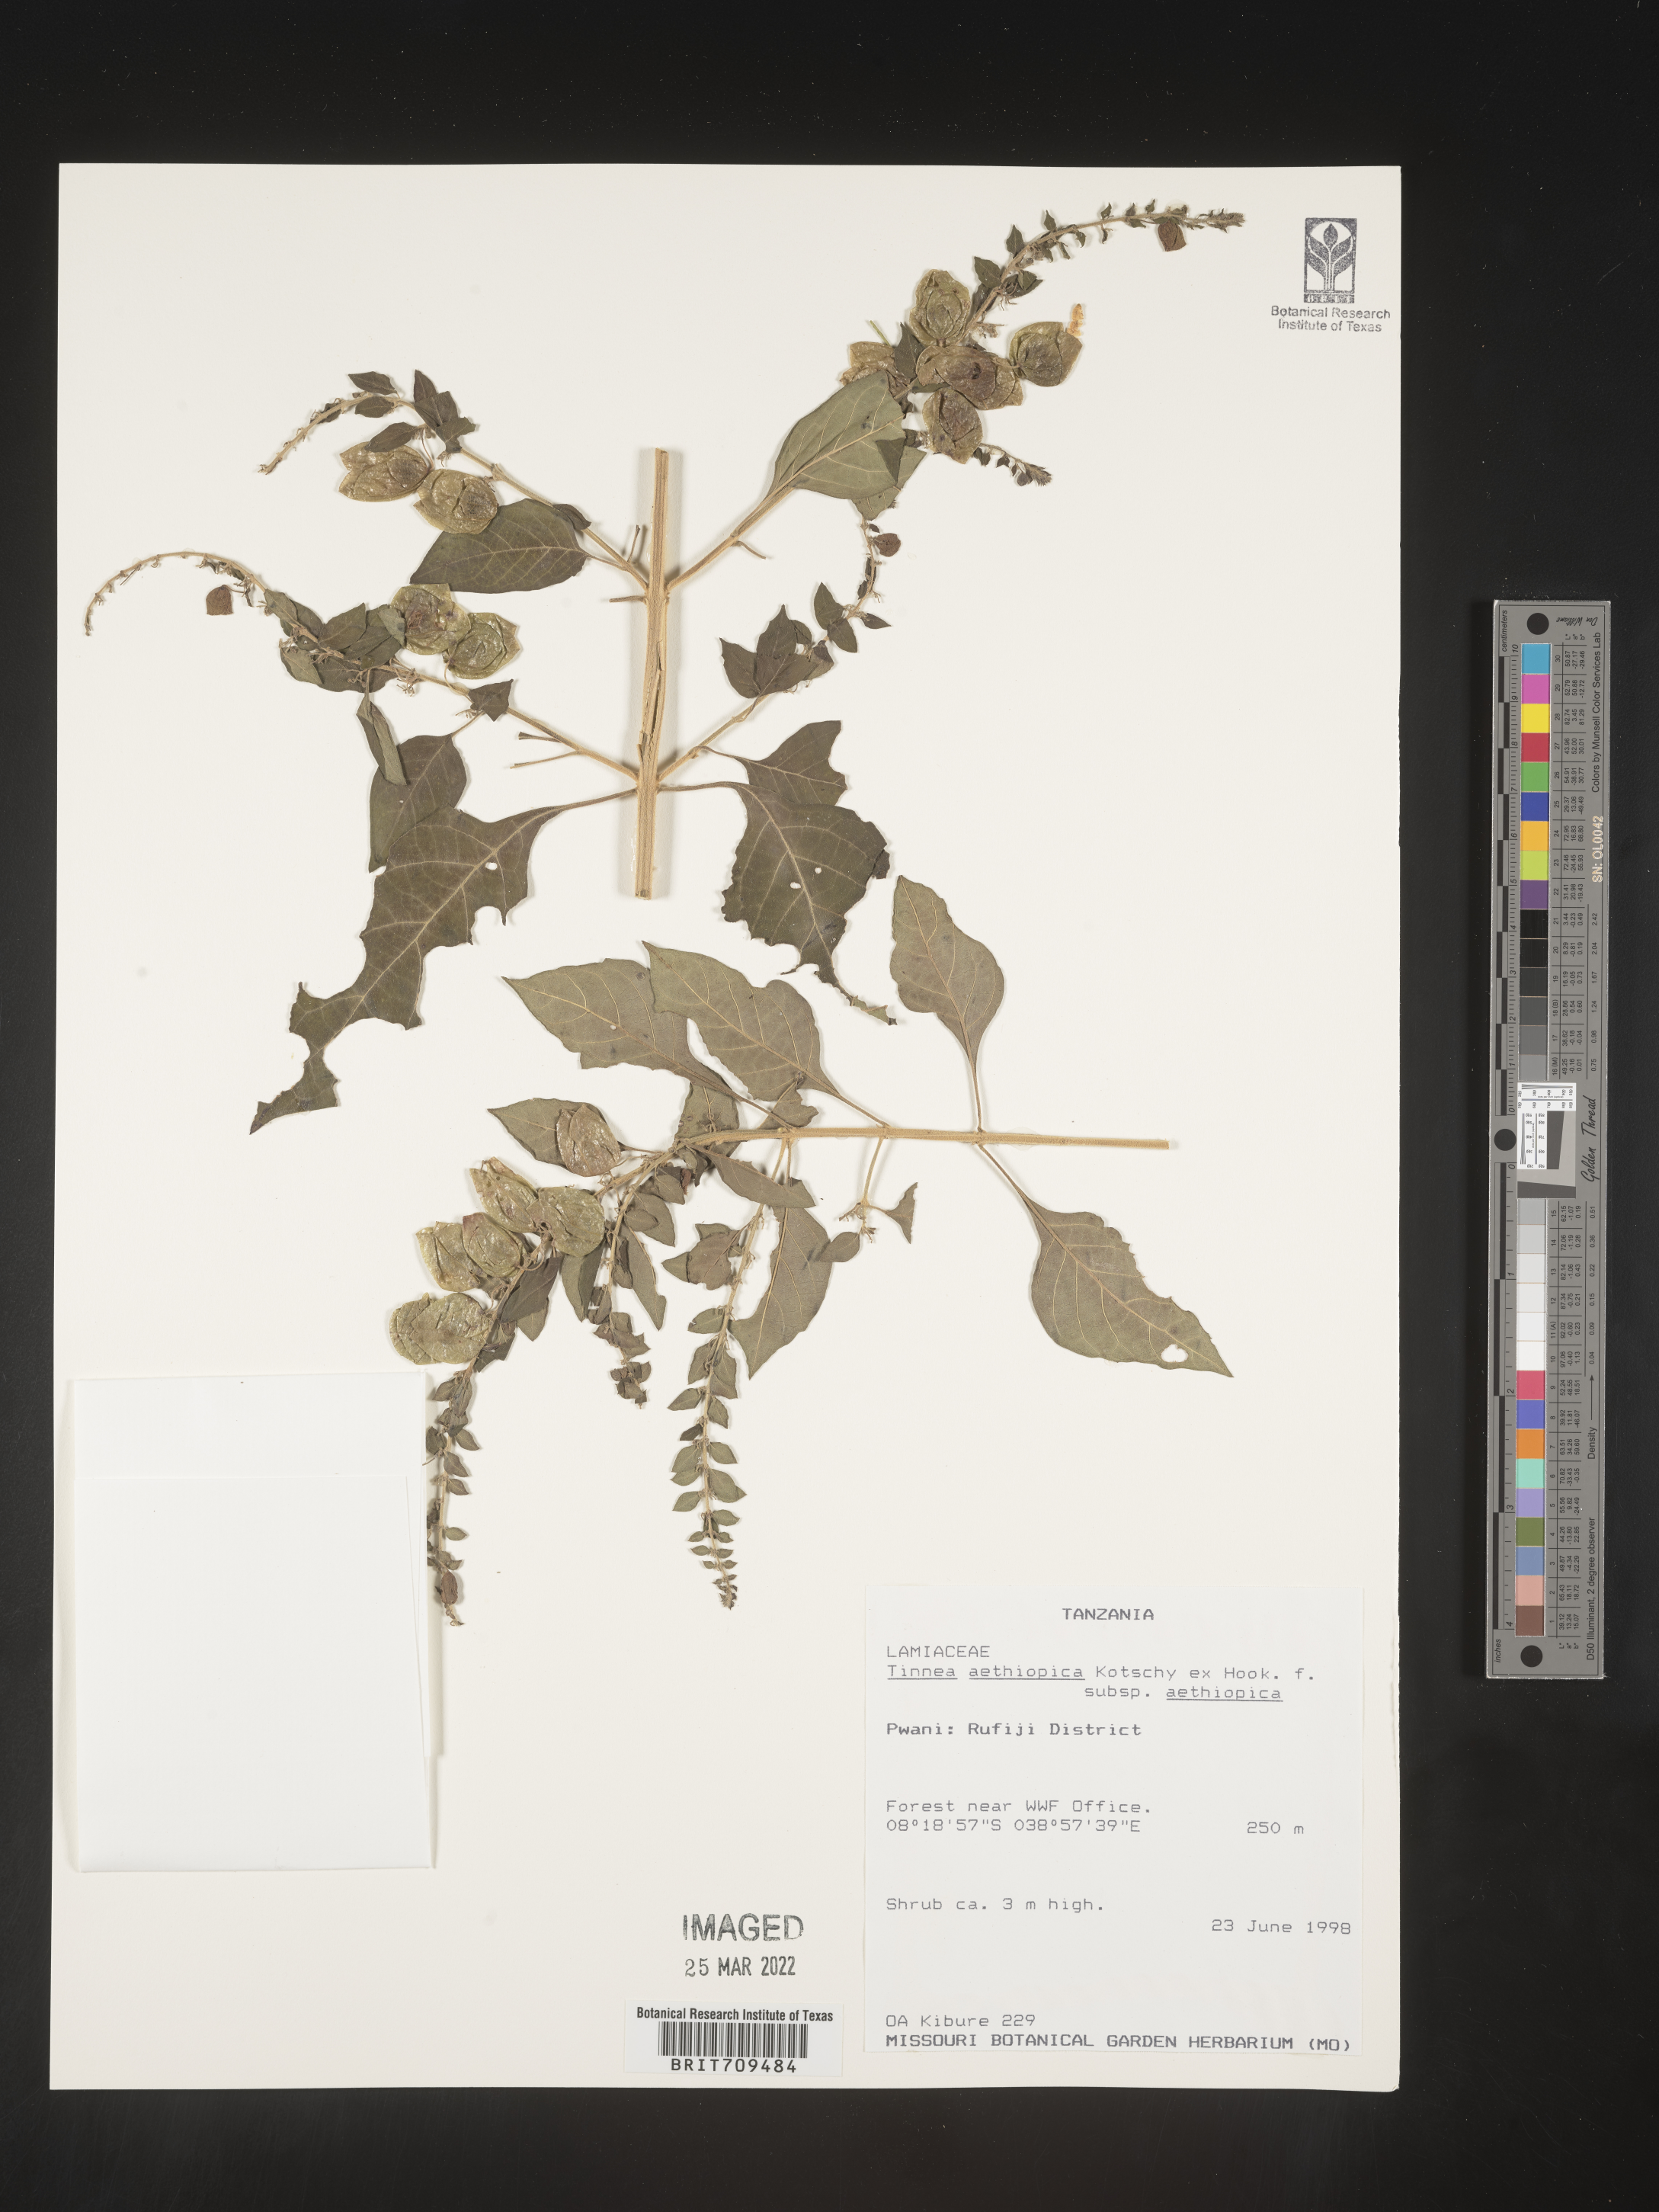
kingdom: Plantae
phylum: Tracheophyta
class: Magnoliopsida
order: Lamiales
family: Lamiaceae
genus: Tinnea
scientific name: Tinnea
